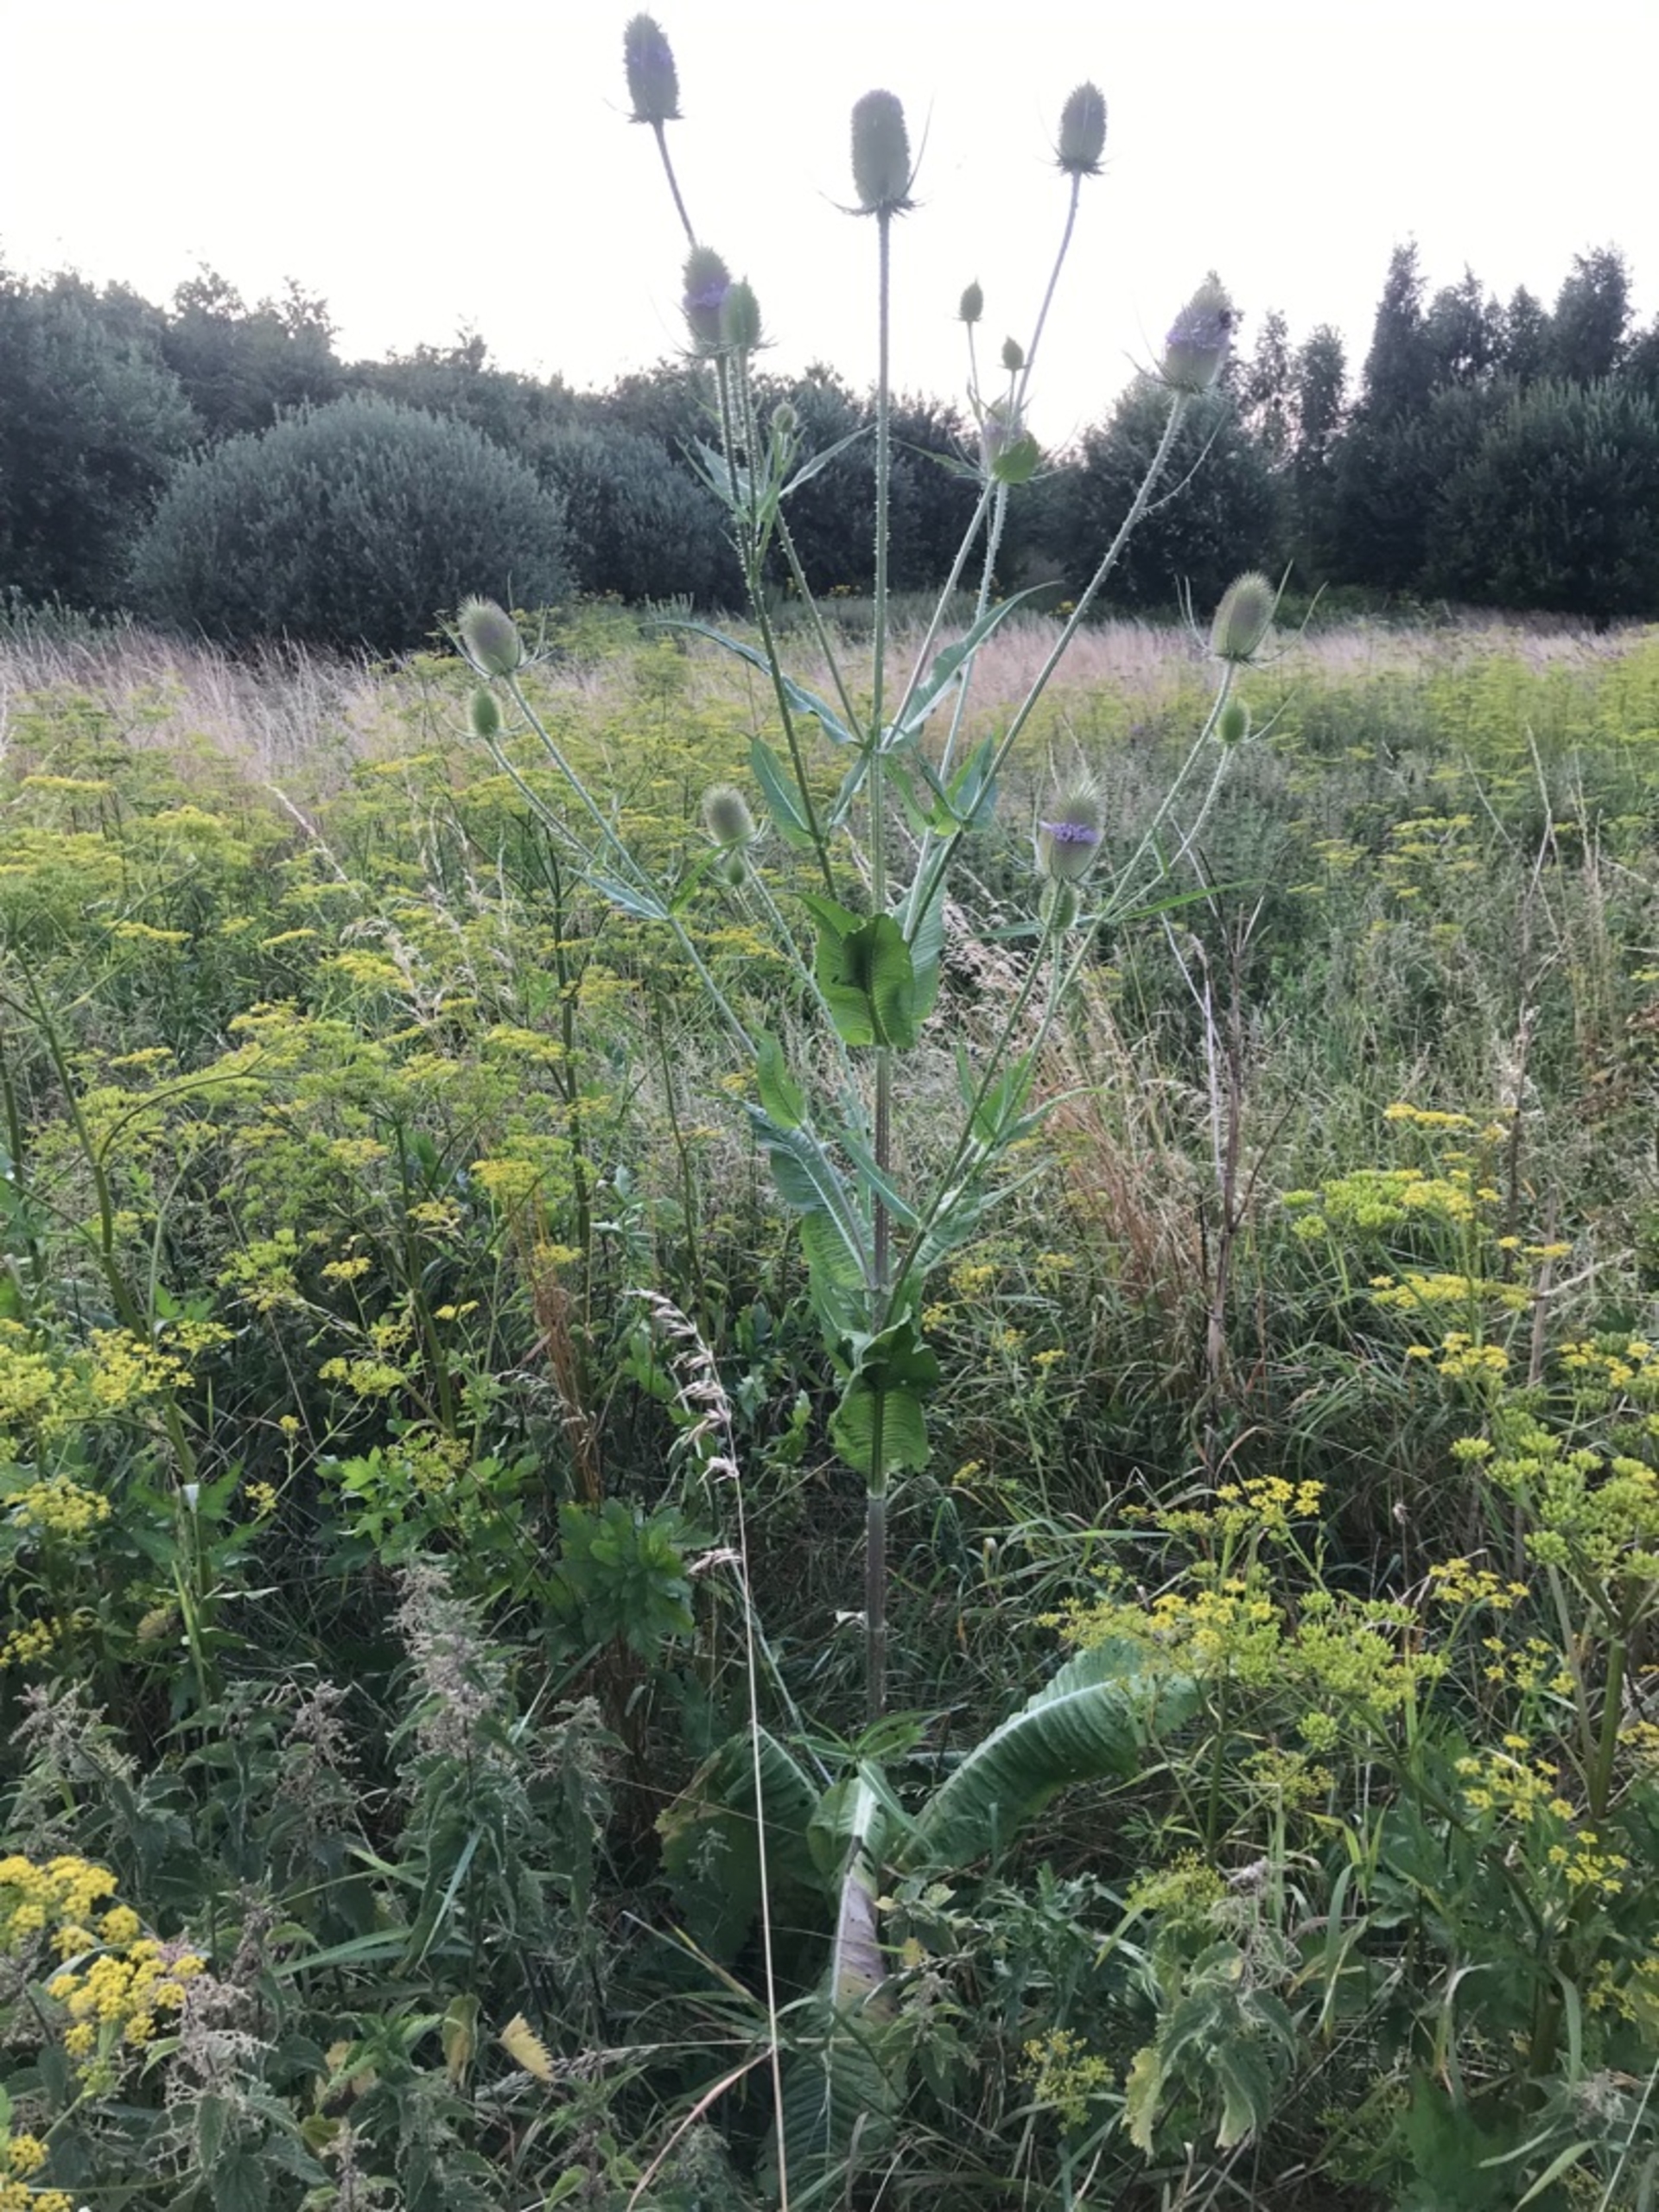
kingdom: Plantae
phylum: Tracheophyta
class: Magnoliopsida
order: Dipsacales
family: Caprifoliaceae
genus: Dipsacus
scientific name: Dipsacus fullonum
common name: Gærde-kartebolle
